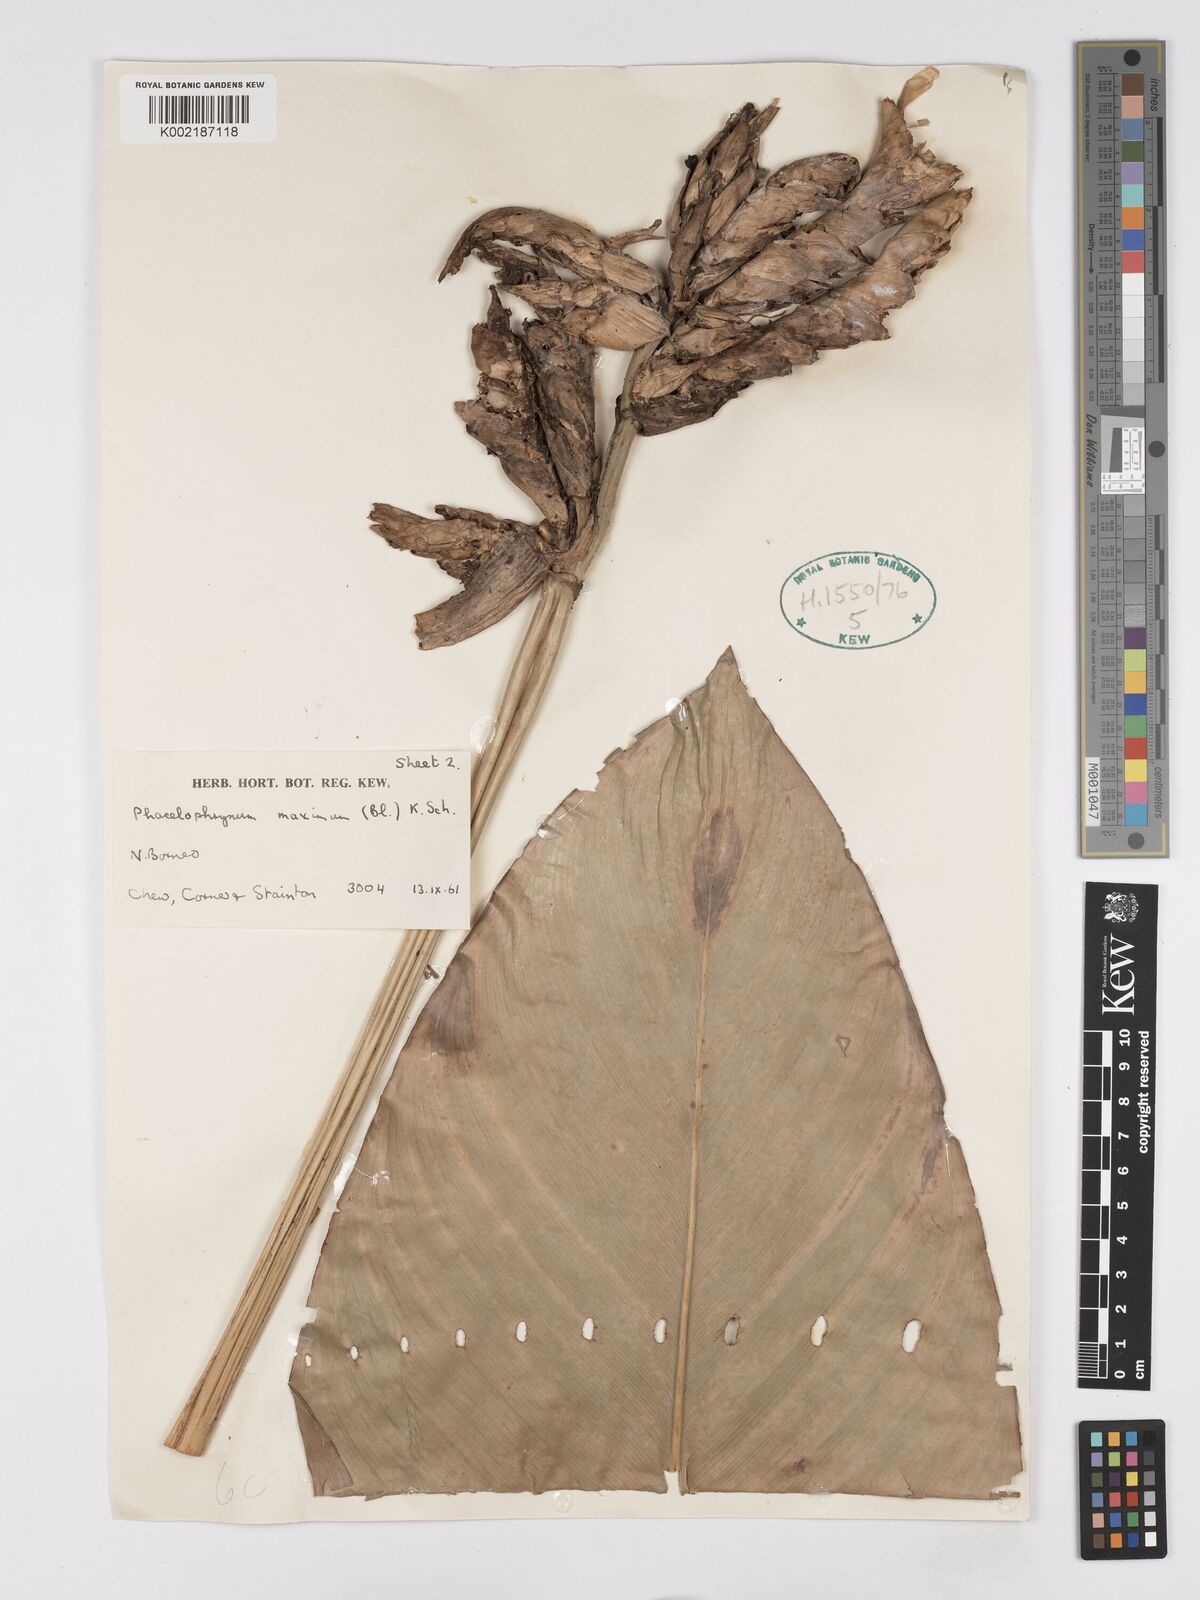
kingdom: Plantae
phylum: Tracheophyta
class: Liliopsida
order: Zingiberales
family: Marantaceae
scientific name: Marantaceae
